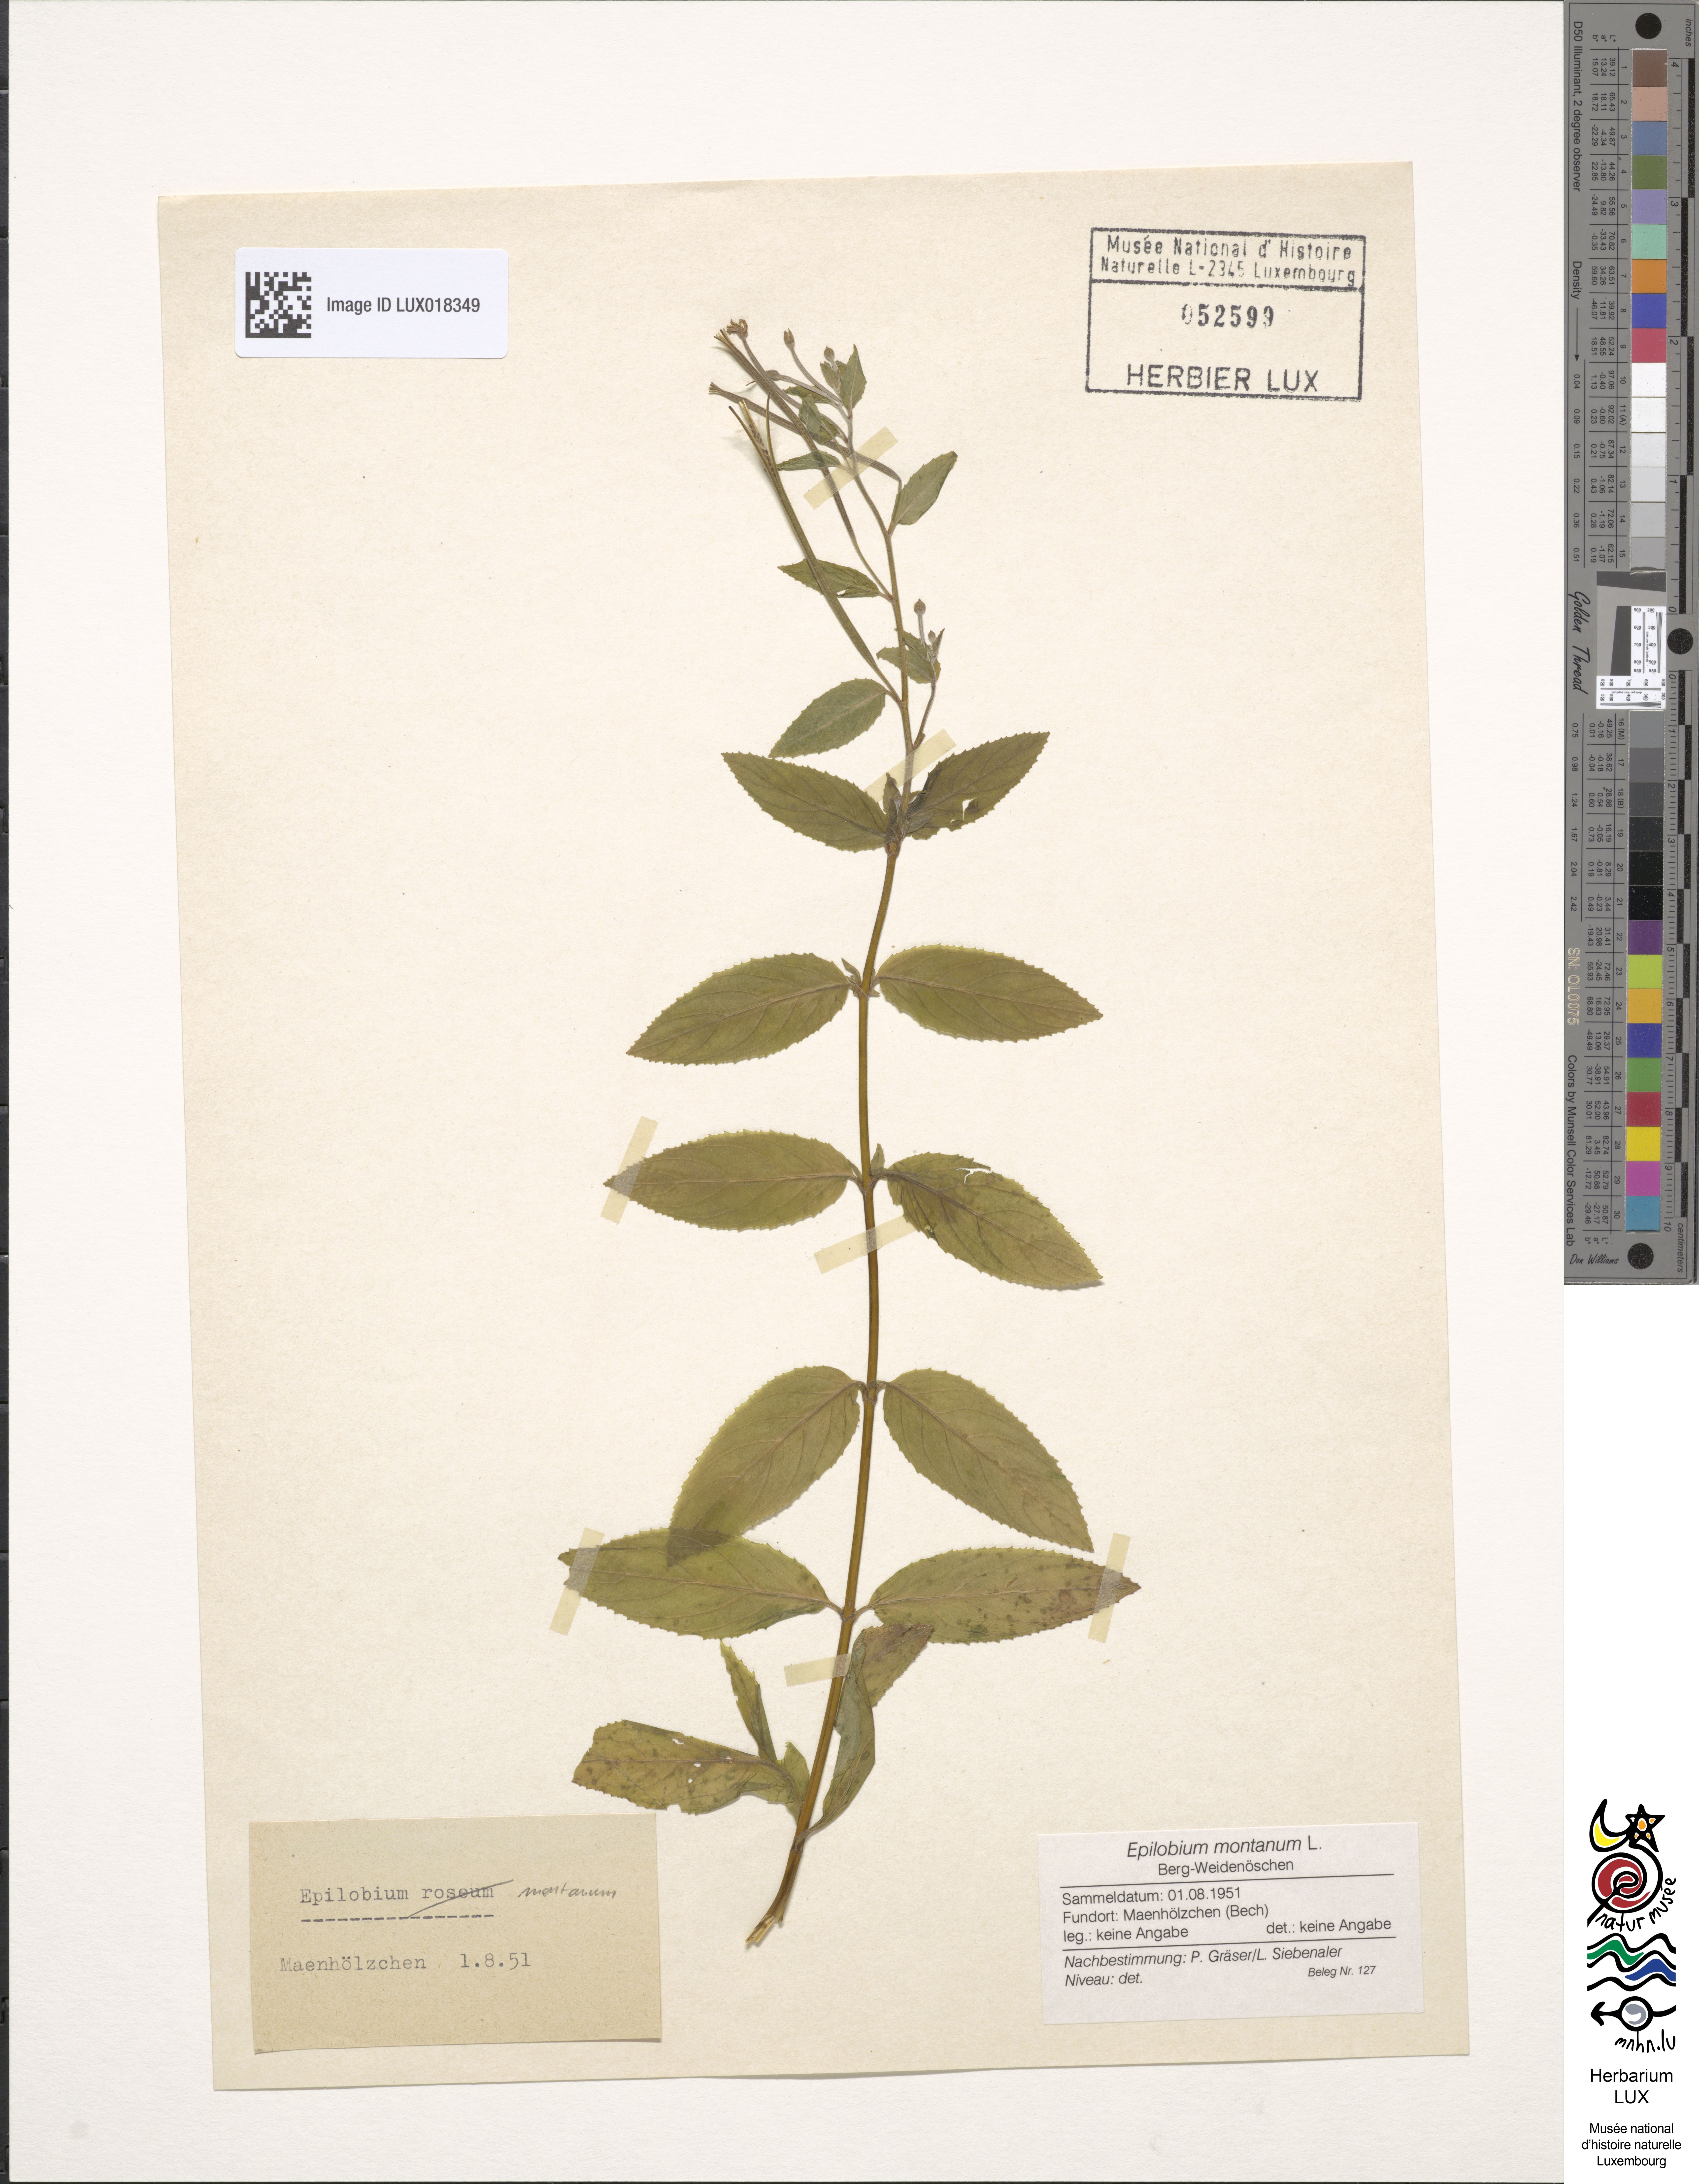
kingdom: Plantae
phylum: Tracheophyta
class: Magnoliopsida
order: Myrtales
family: Onagraceae
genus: Epilobium
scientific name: Epilobium montanum
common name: Broad-leaved willowherb
